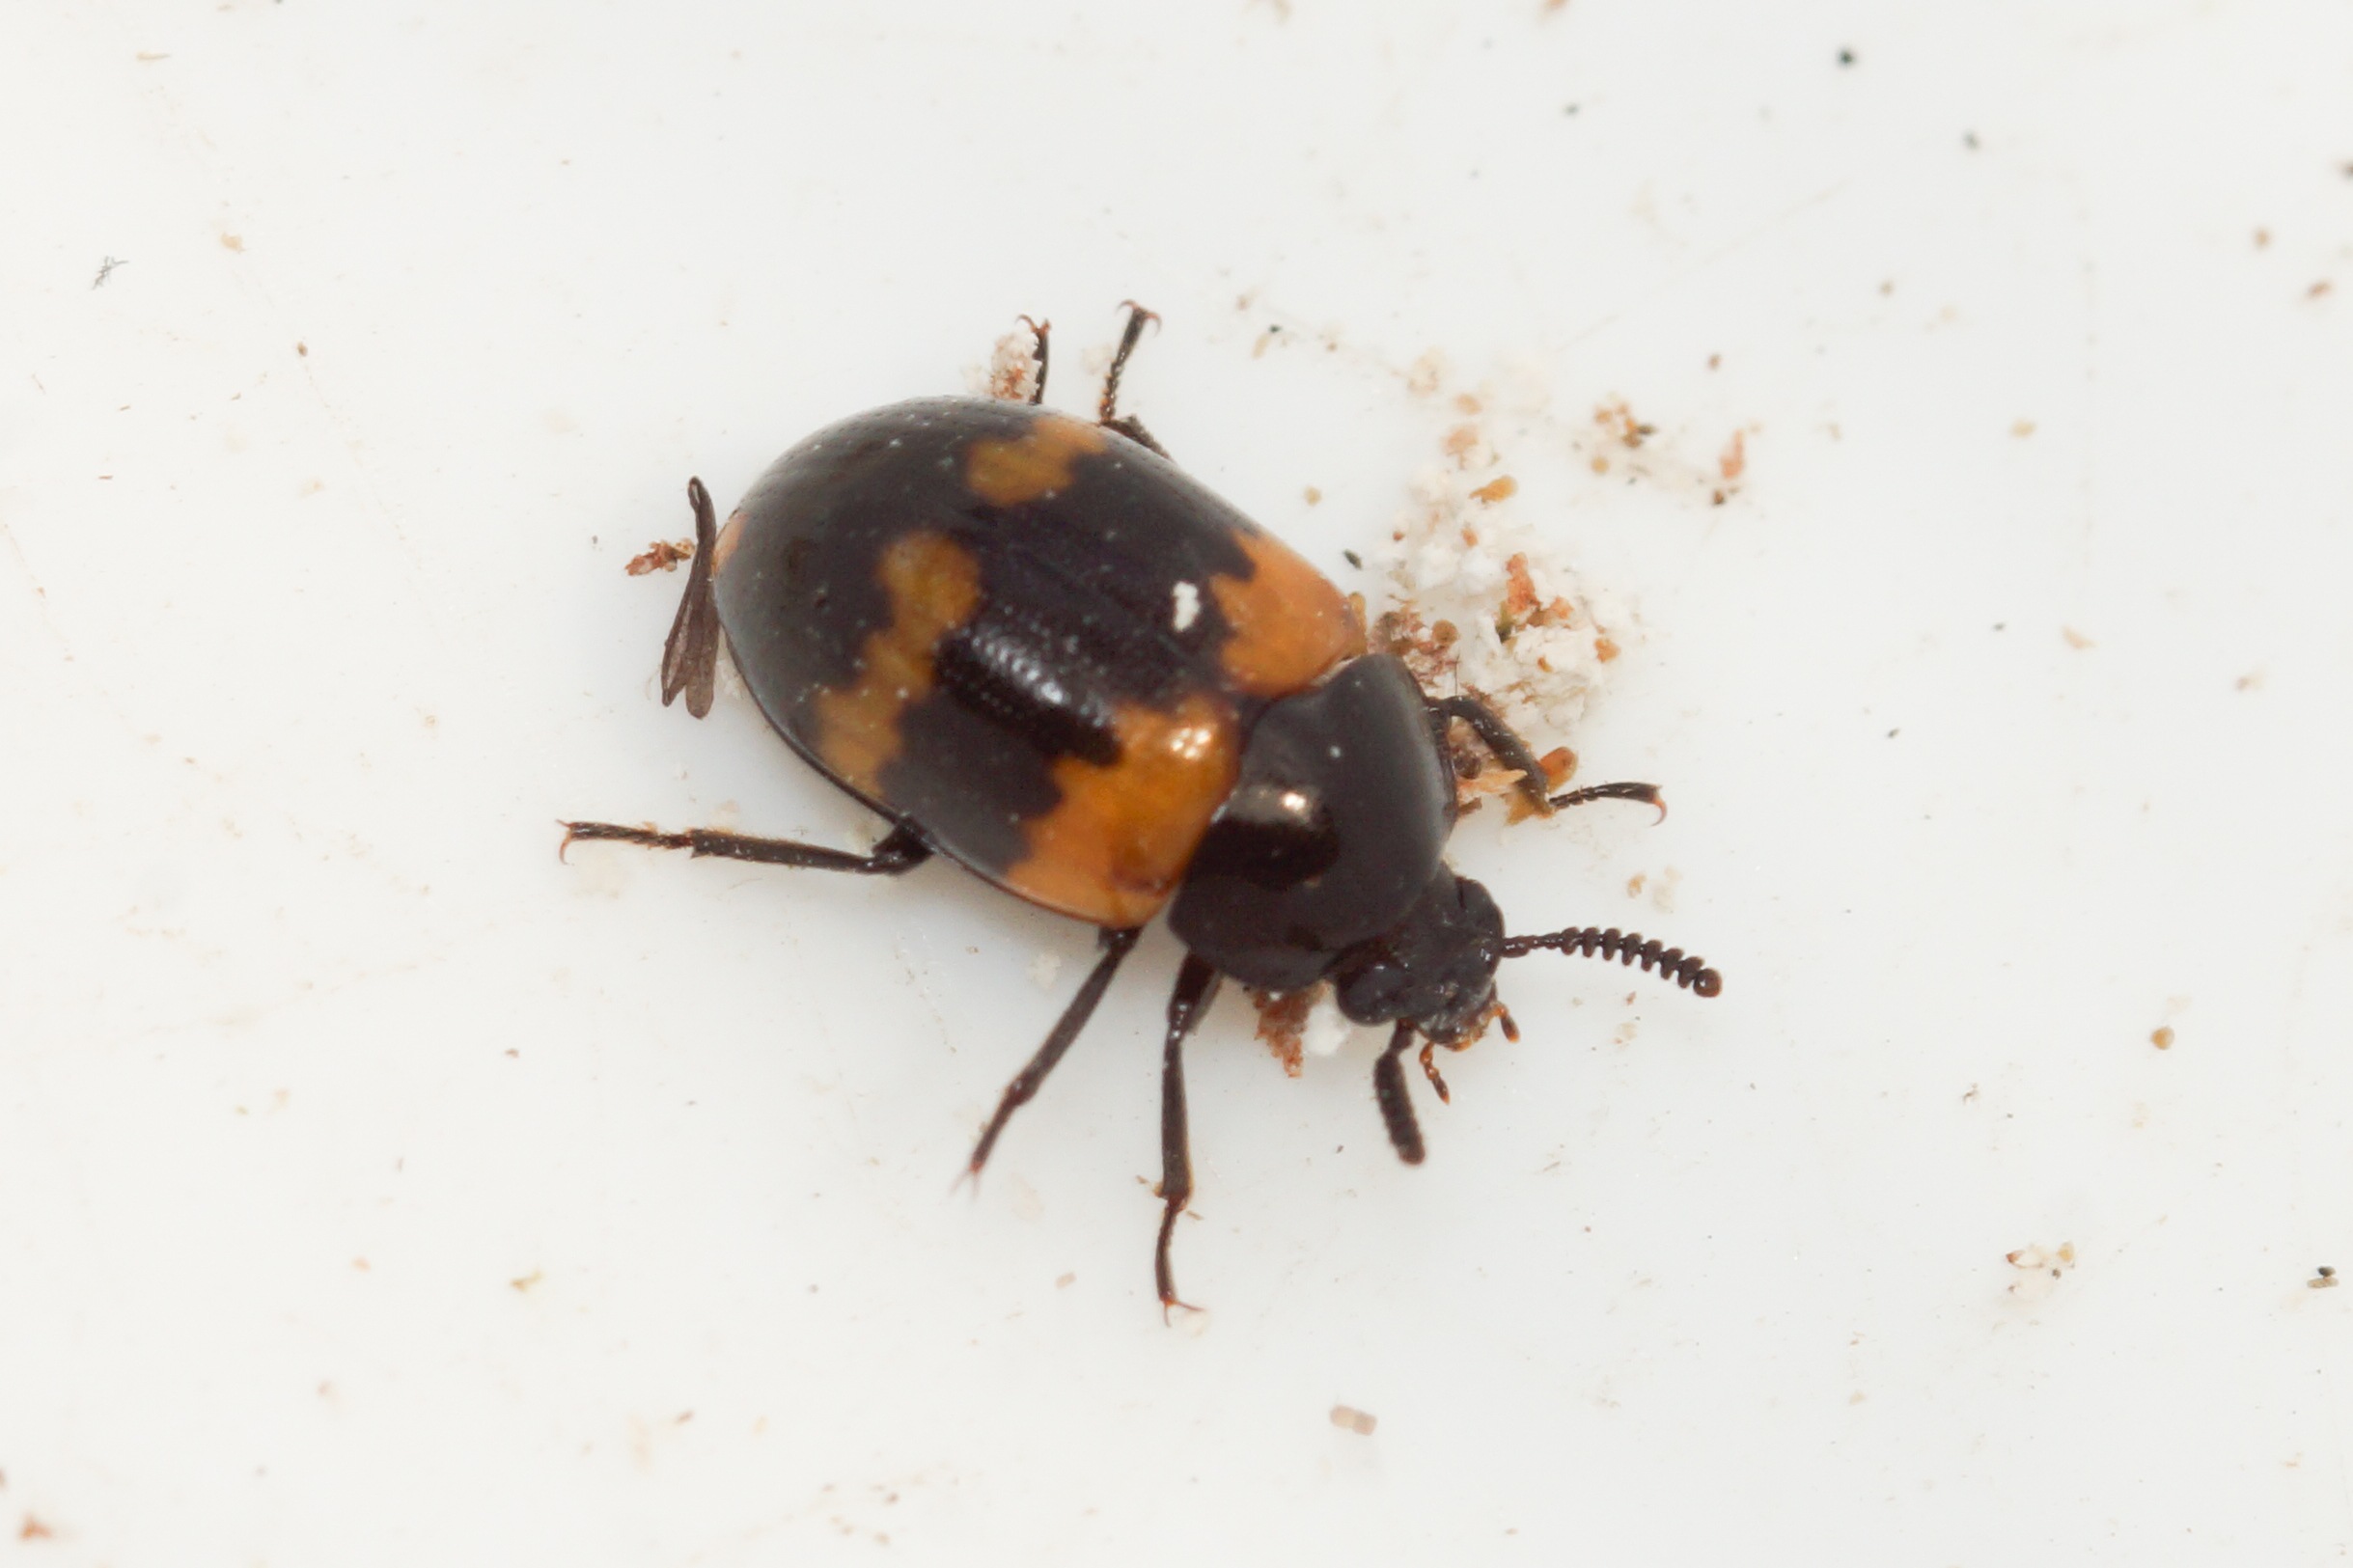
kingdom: Animalia
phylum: Arthropoda
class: Insecta
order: Coleoptera
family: Tenebrionidae
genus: Diaperis
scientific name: Diaperis boleti
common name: Tigerskyggebille
